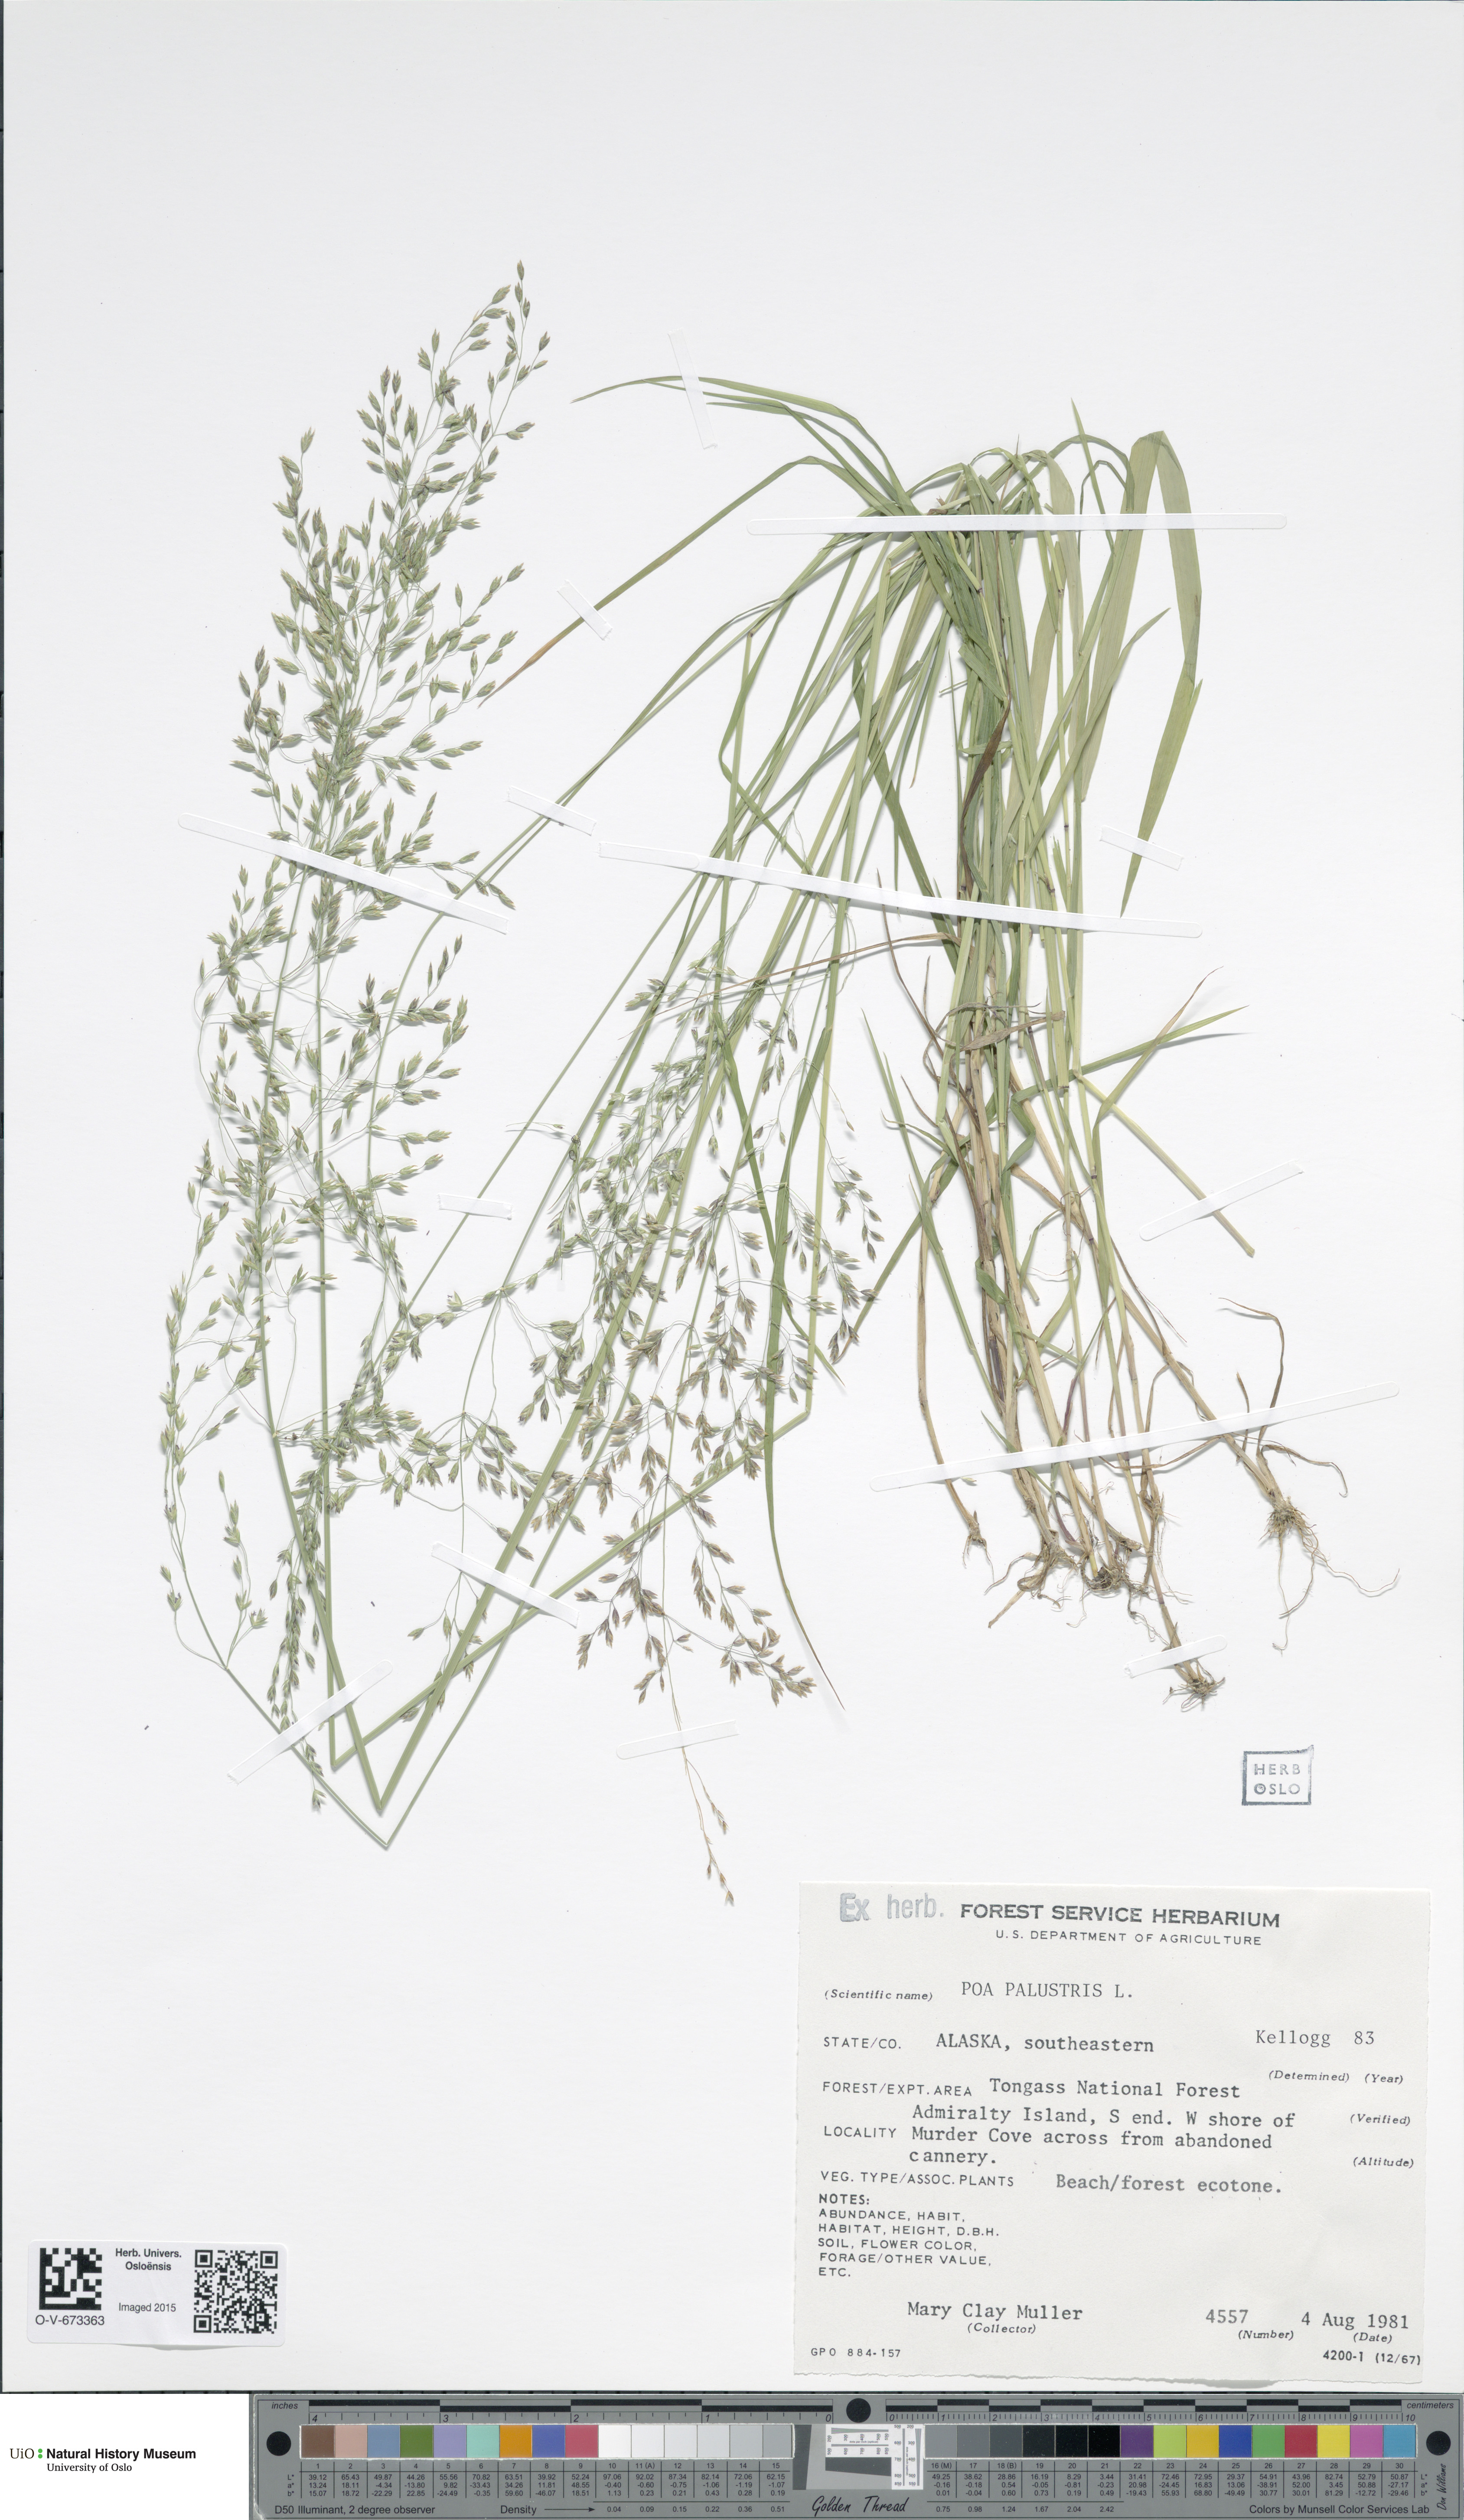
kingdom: Plantae
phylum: Tracheophyta
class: Liliopsida
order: Poales
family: Poaceae
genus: Poa
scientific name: Poa palustris
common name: Swamp meadow-grass
